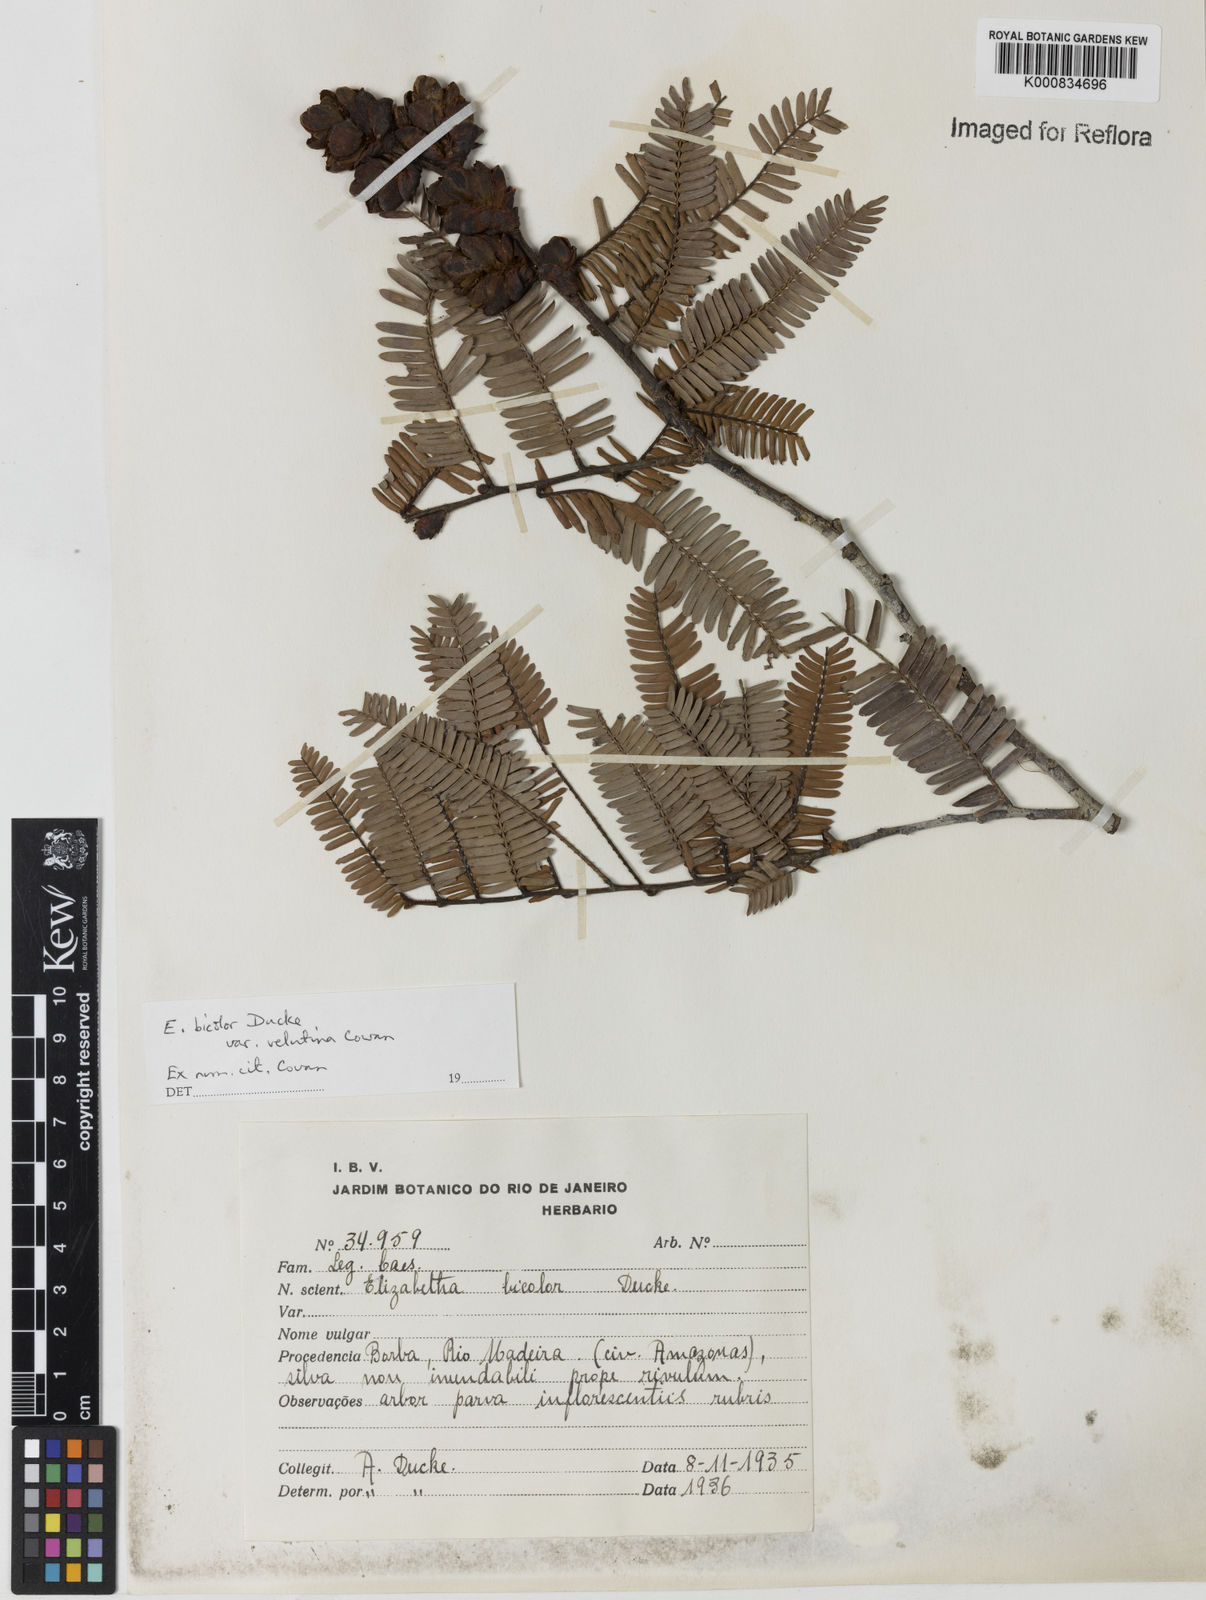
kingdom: Plantae
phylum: Tracheophyta
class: Magnoliopsida
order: Fabales
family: Fabaceae
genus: Paloue
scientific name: Paloue bicolor
